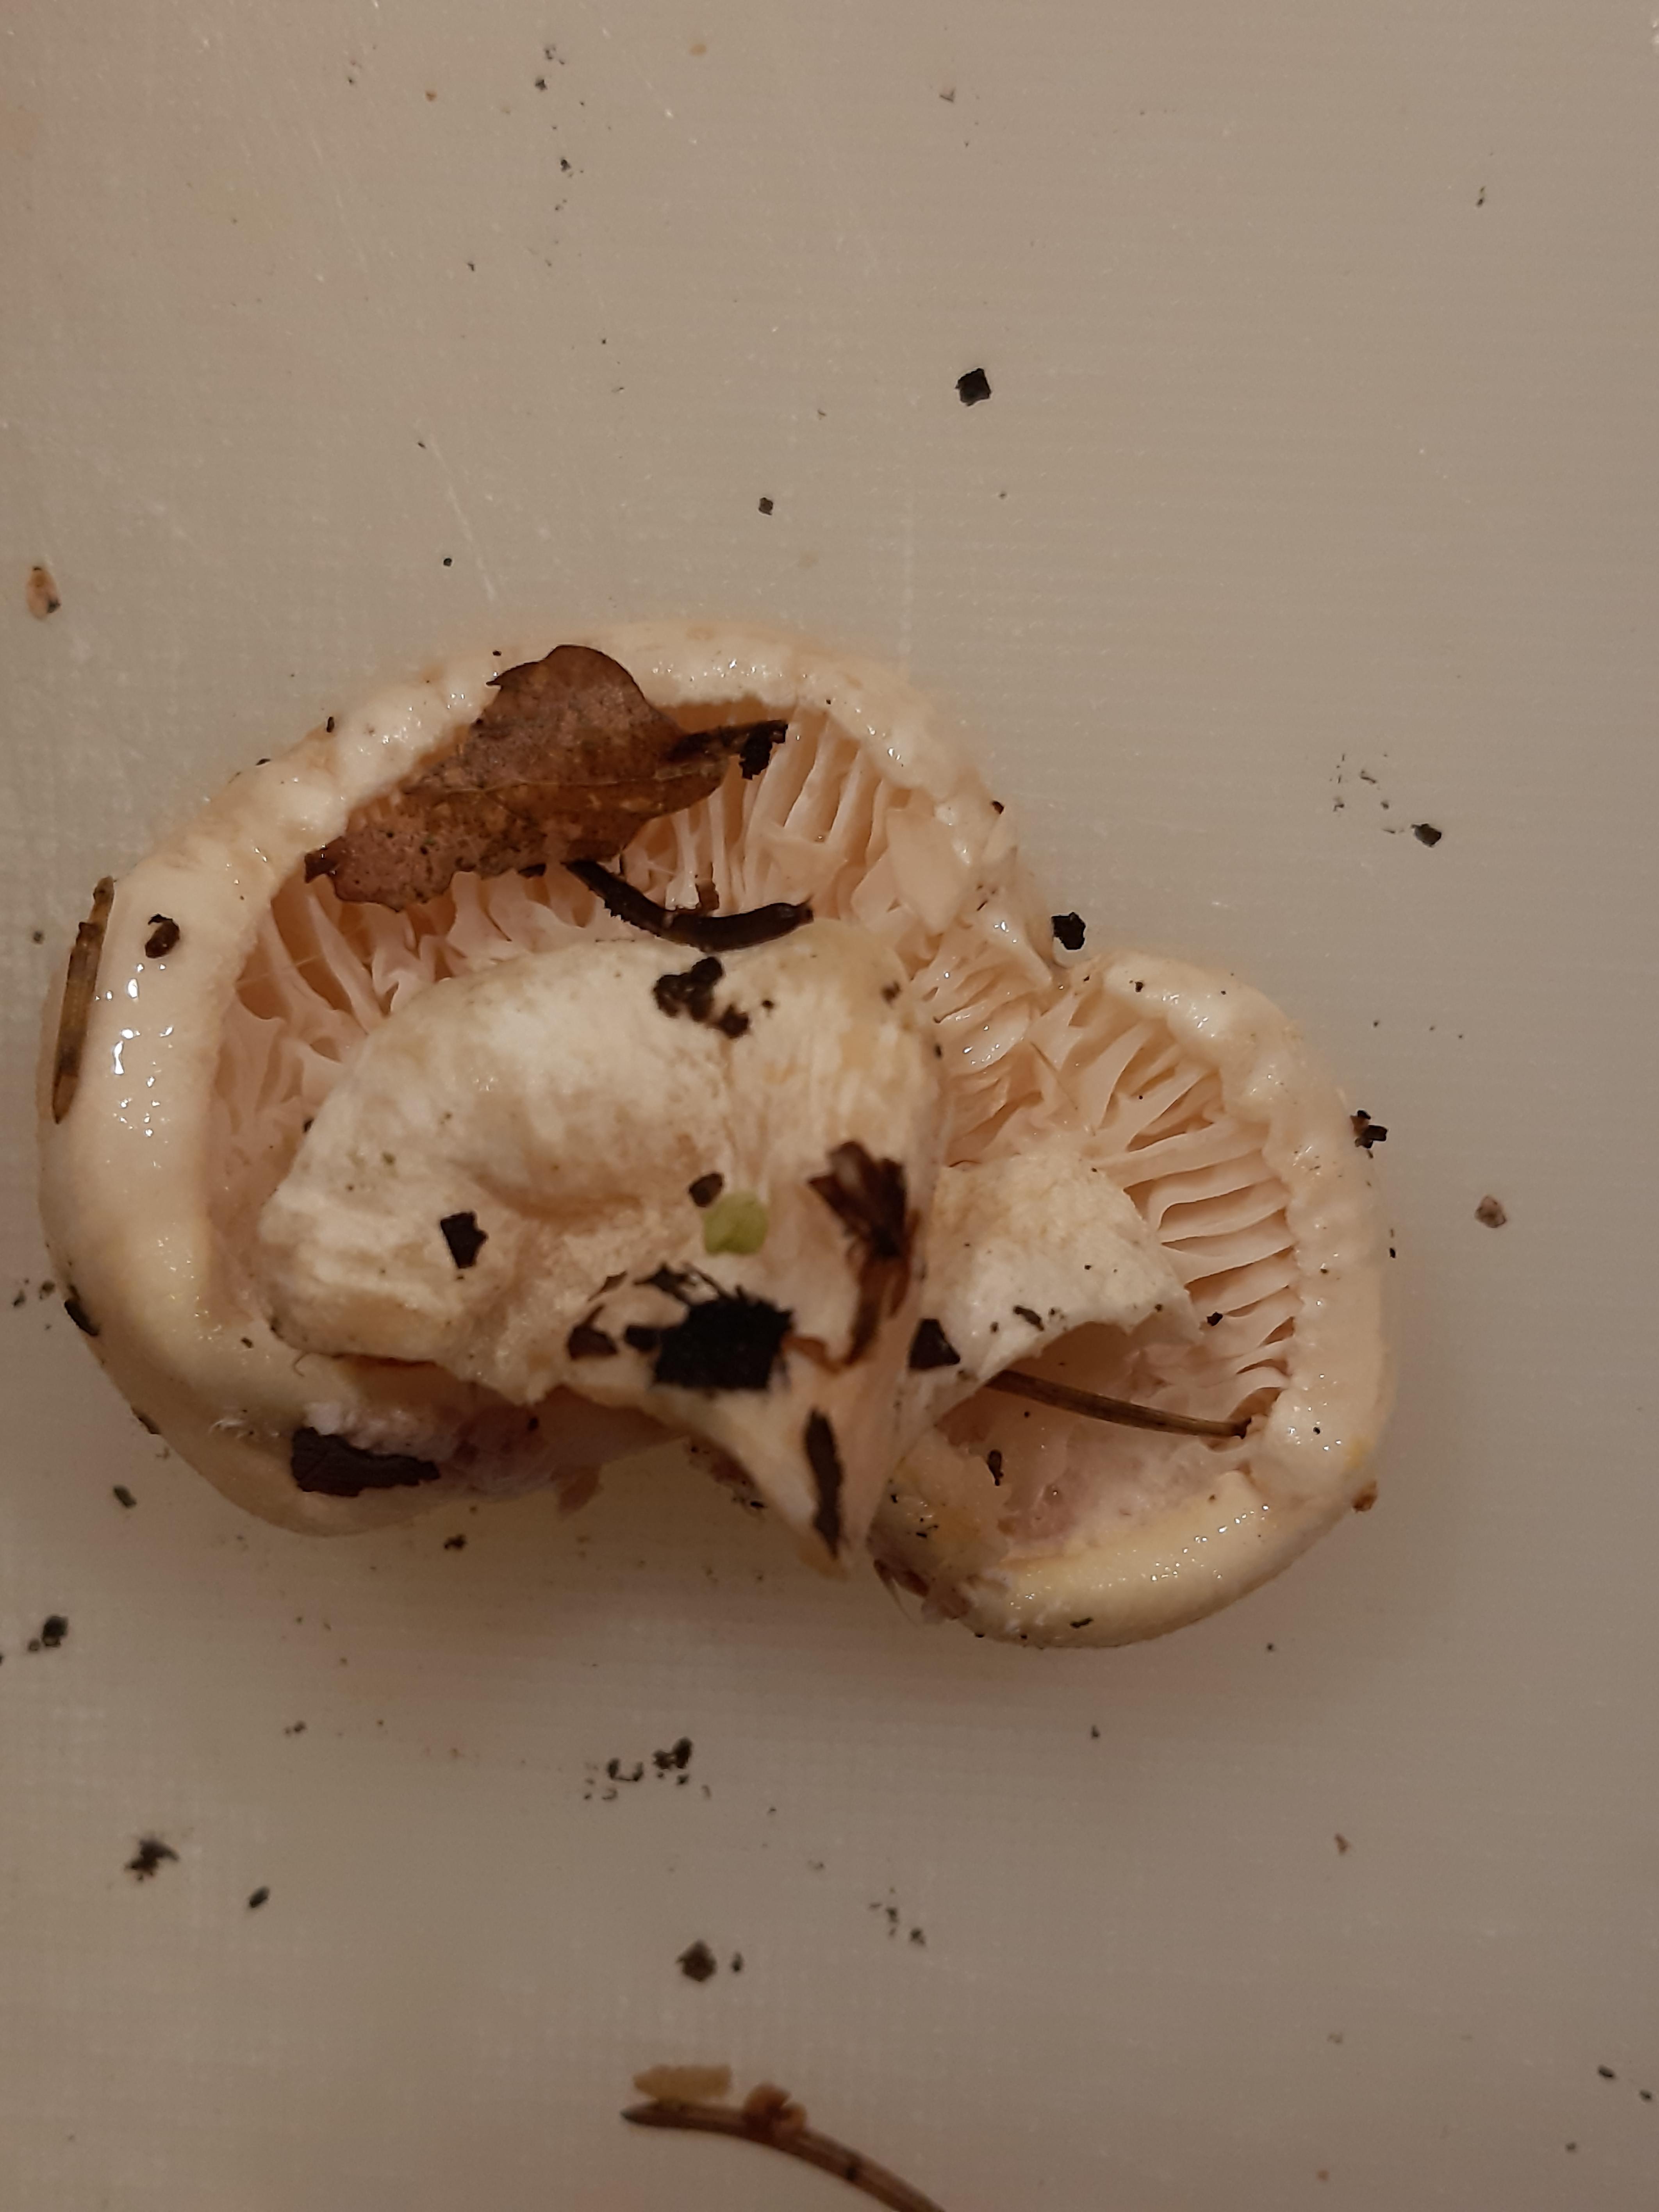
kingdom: Fungi
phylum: Basidiomycota
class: Agaricomycetes
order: Agaricales
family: Hygrophoraceae
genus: Hygrophorus
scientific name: Hygrophorus
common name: sneglehat
